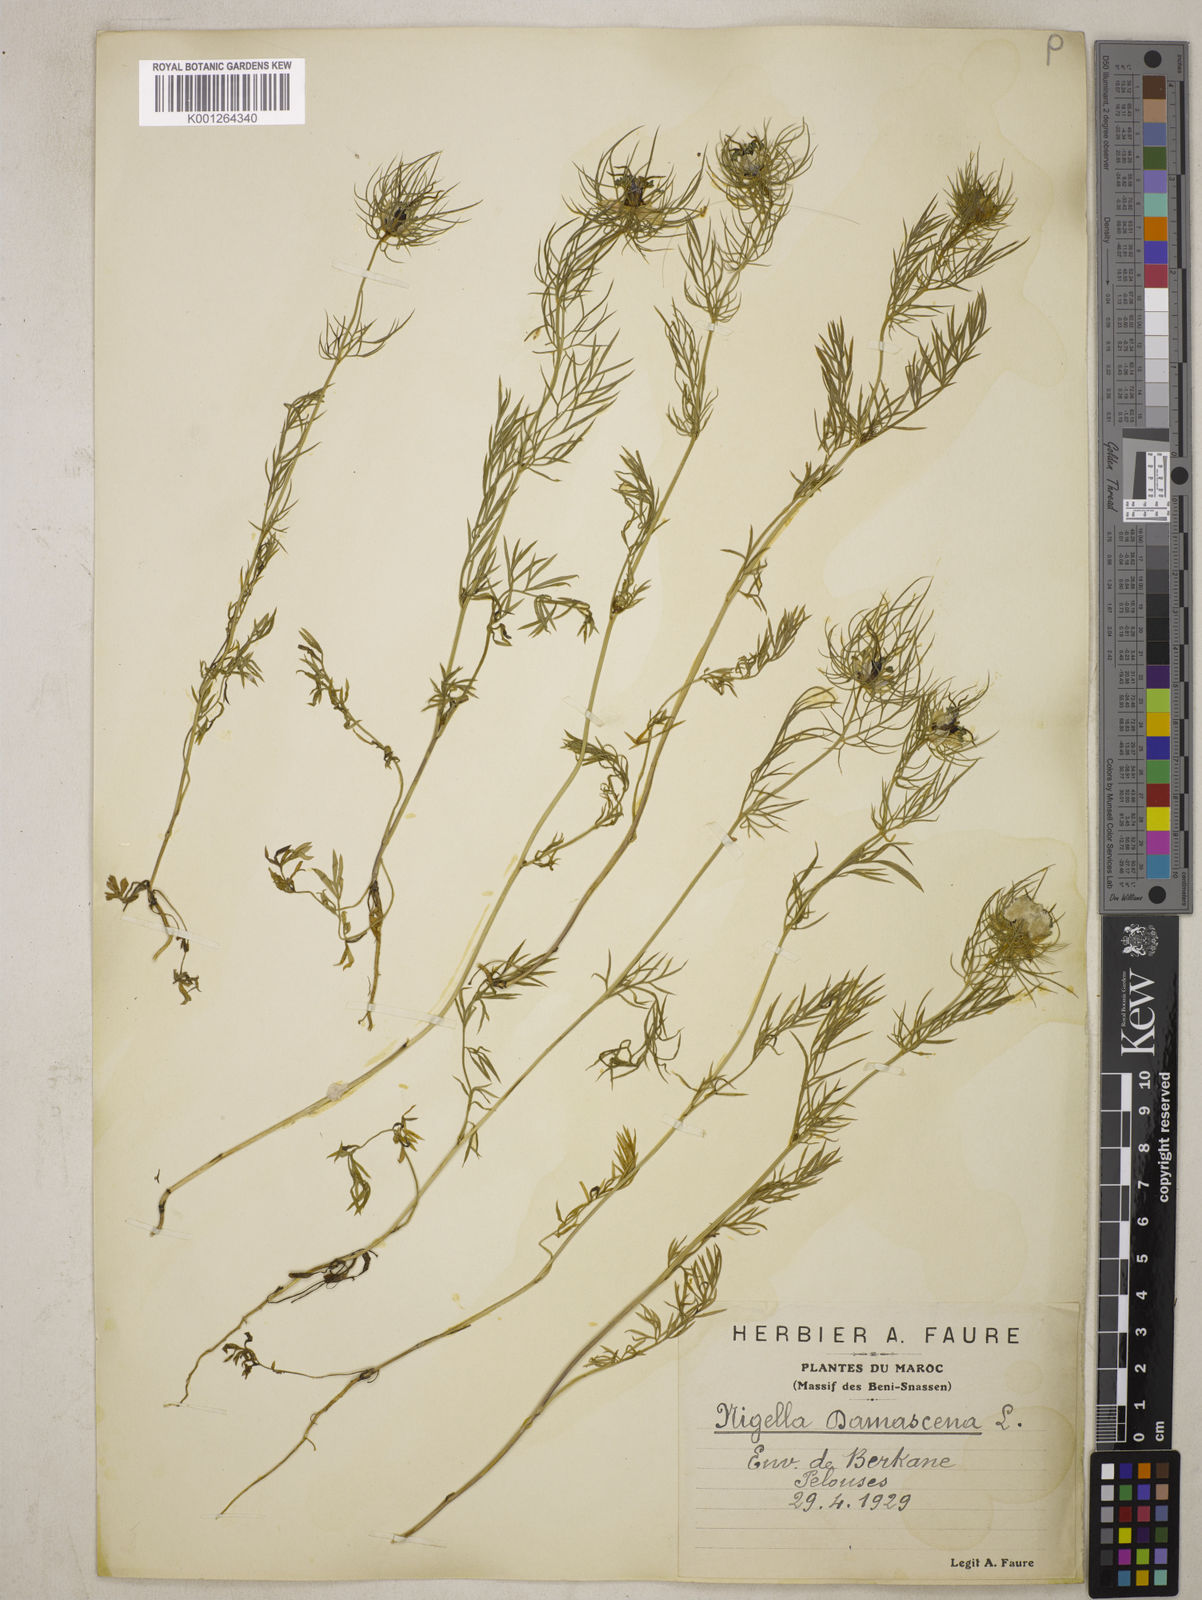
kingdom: Plantae
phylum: Tracheophyta
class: Magnoliopsida
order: Ranunculales
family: Ranunculaceae
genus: Nigella
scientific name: Nigella damascena
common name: Love-in-a-mist
